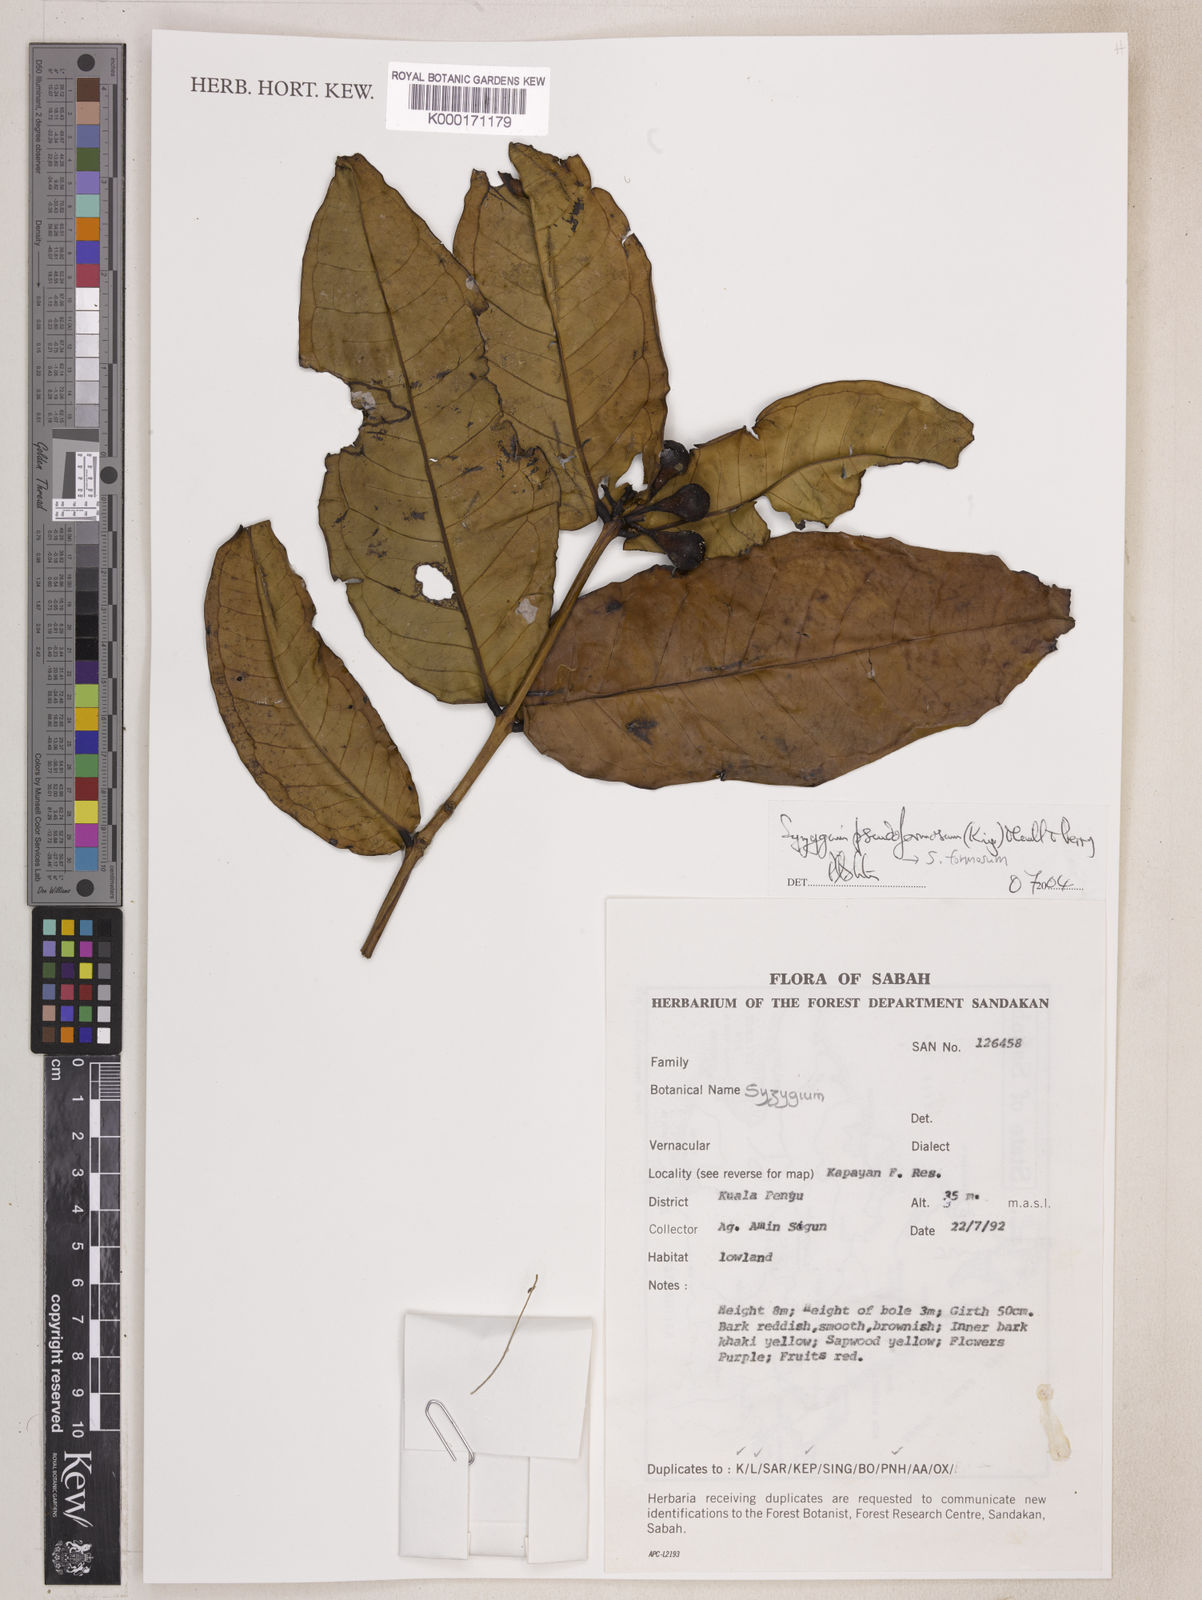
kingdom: Plantae
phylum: Tracheophyta
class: Magnoliopsida
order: Myrtales
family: Myrtaceae
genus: Syzygium
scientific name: Syzygium pseudoformosum
